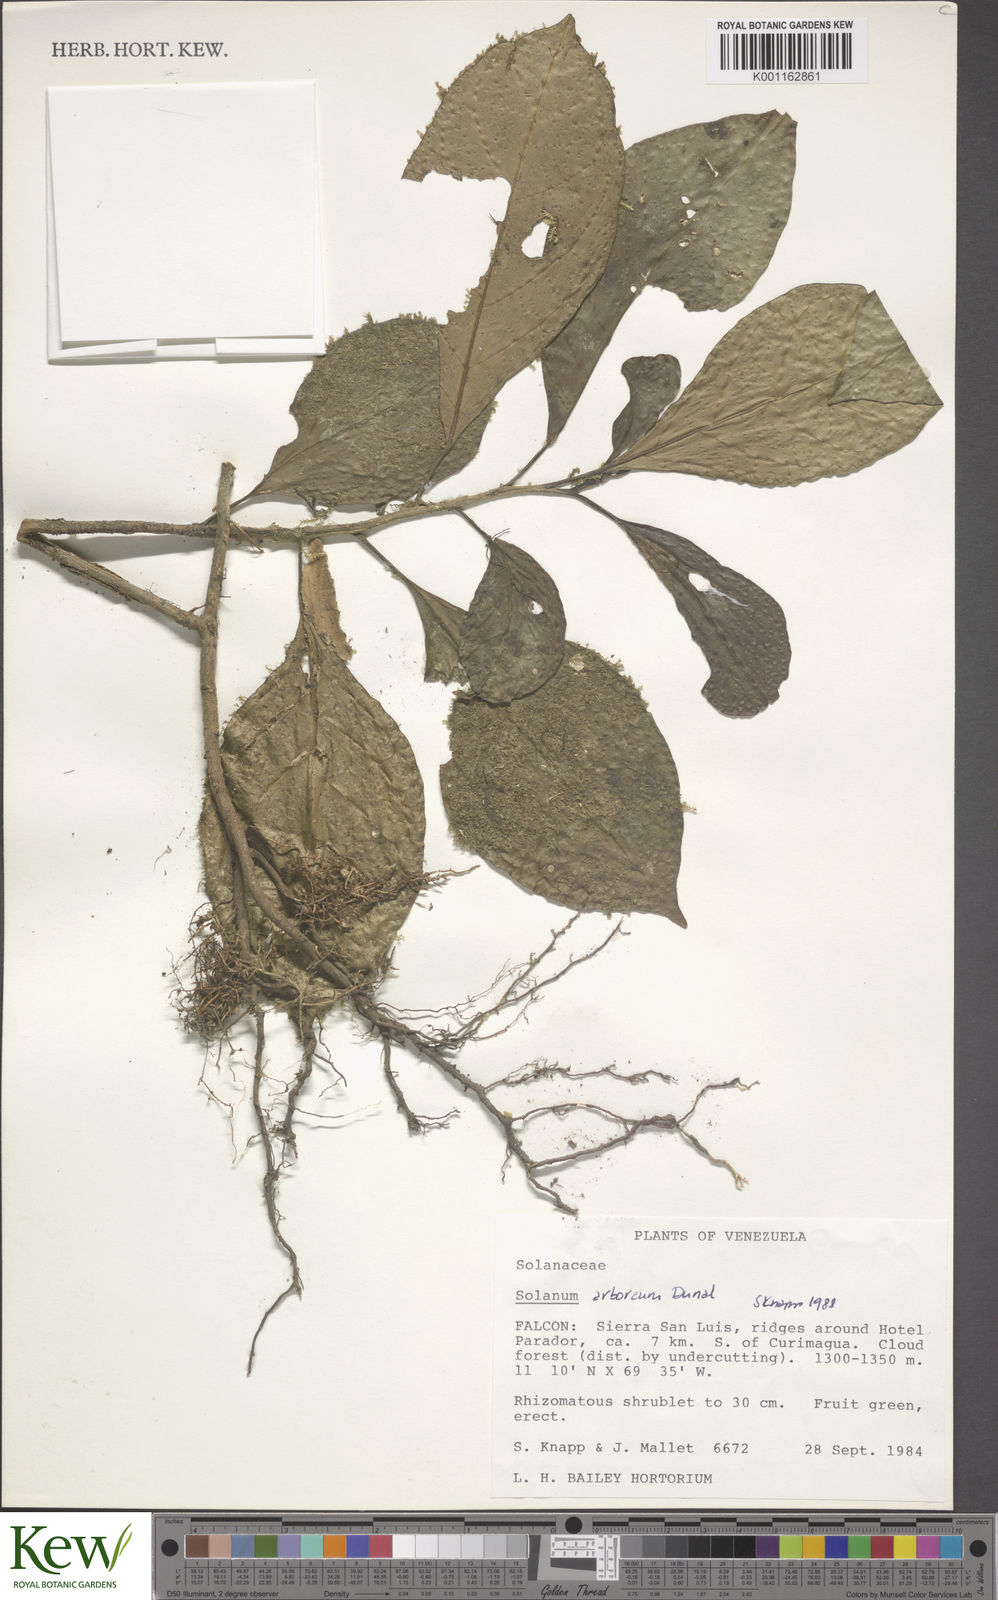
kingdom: Plantae
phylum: Tracheophyta
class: Magnoliopsida
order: Solanales
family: Solanaceae
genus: Solanum
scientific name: Solanum arboreum
